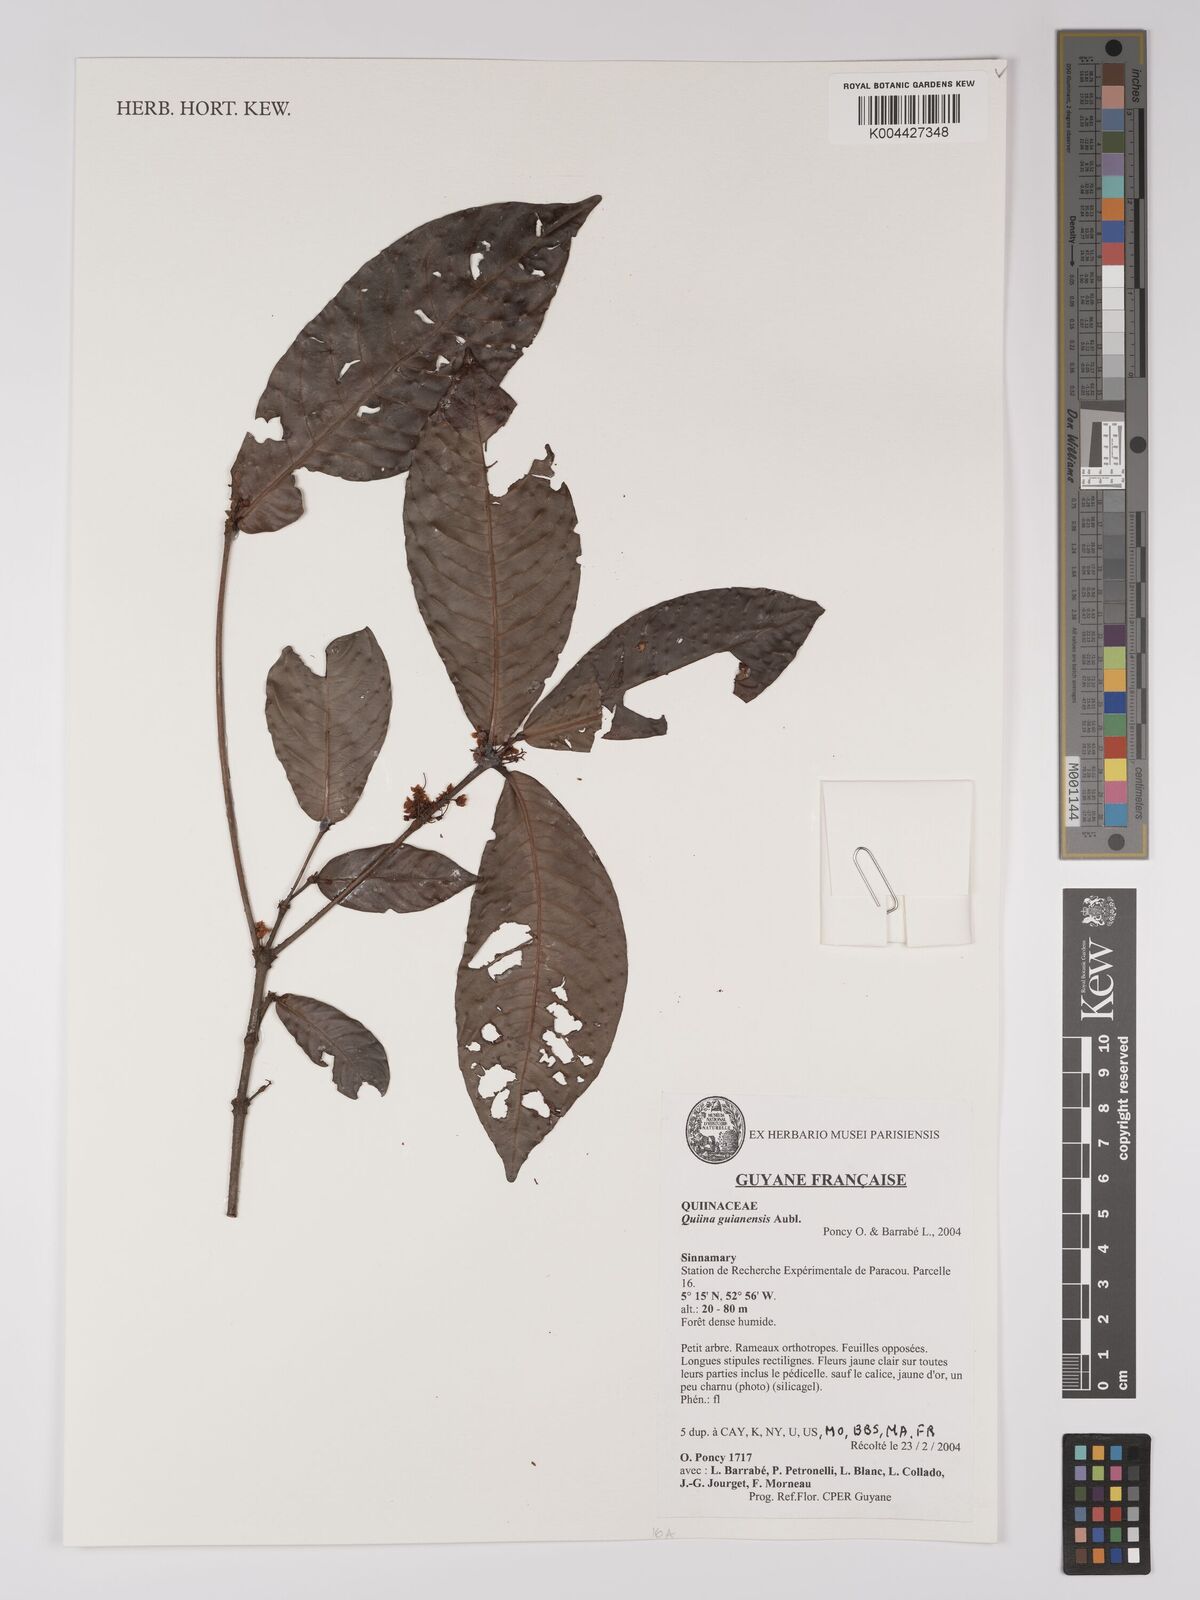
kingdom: Plantae
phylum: Tracheophyta
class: Magnoliopsida
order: Malpighiales
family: Quiinaceae
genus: Quiina
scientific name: Quiina guianensis
